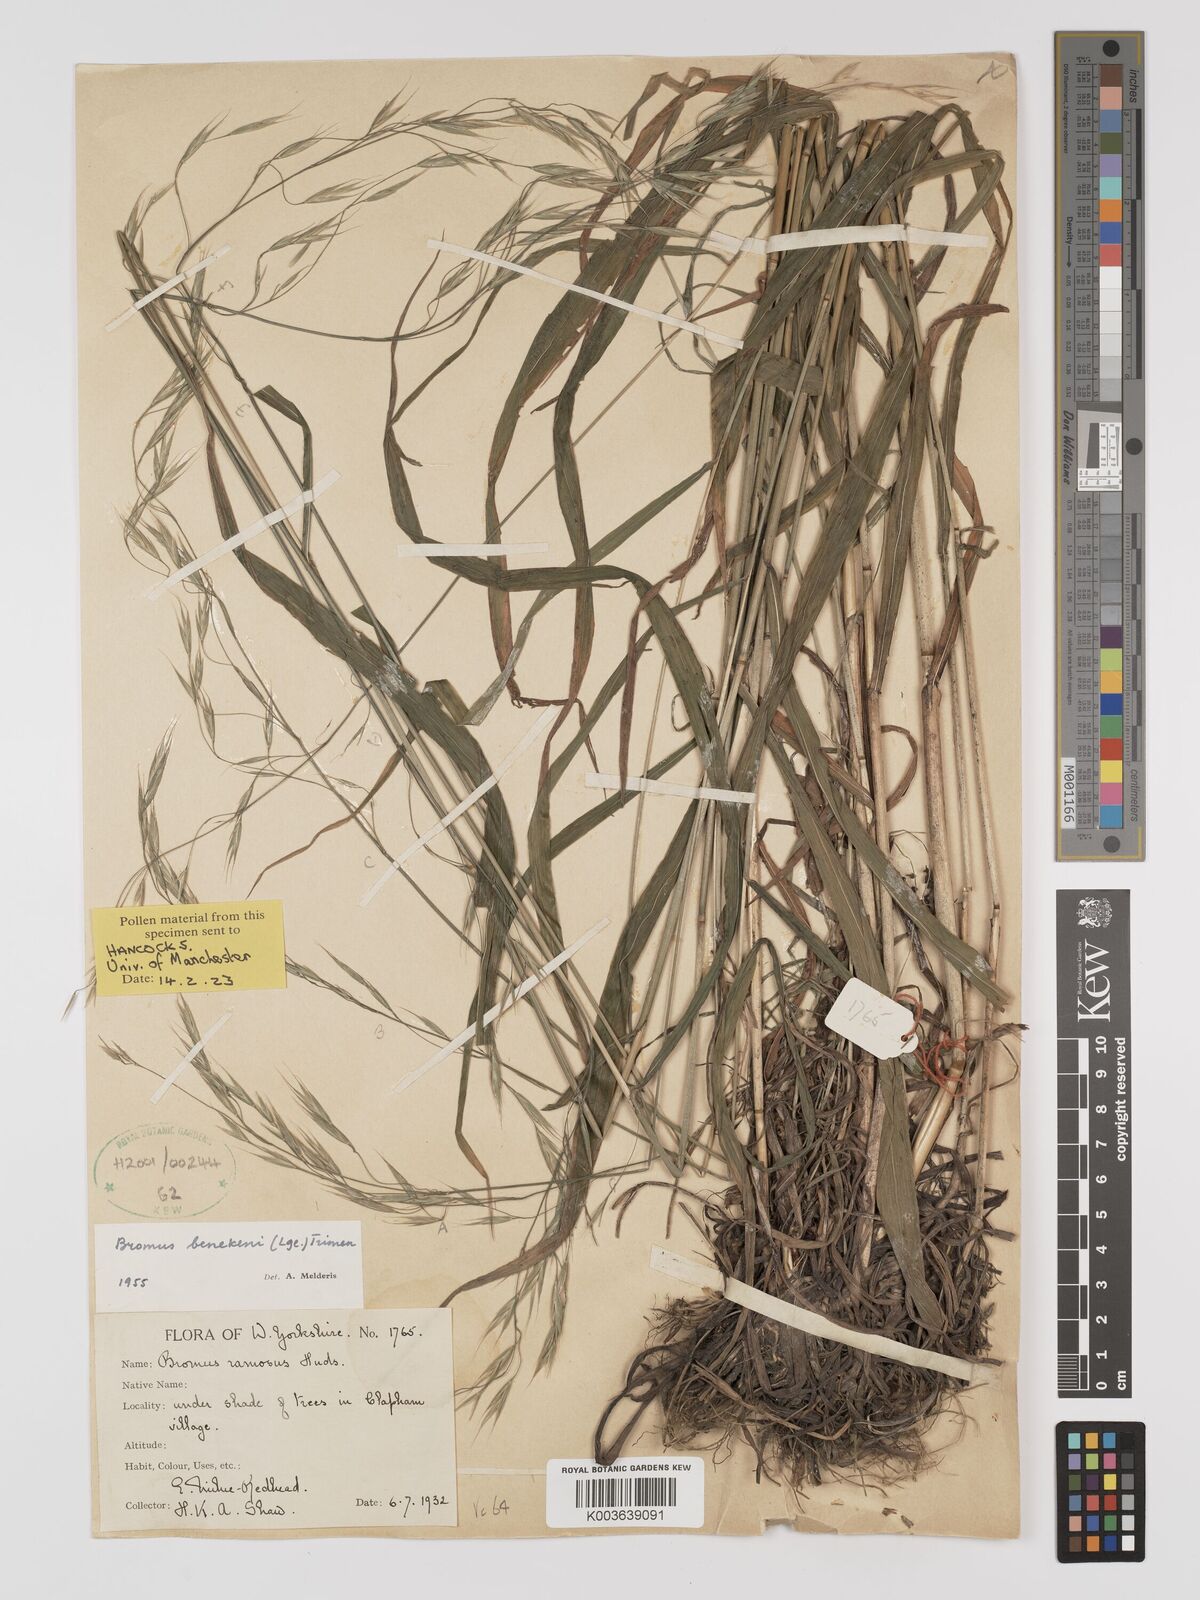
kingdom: Plantae
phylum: Tracheophyta
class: Liliopsida
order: Poales
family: Poaceae
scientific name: Poaceae
